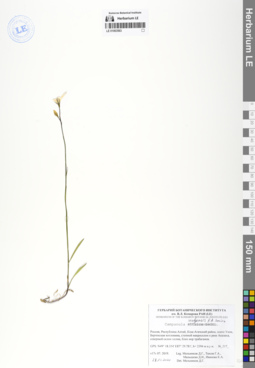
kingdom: Plantae
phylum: Tracheophyta
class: Magnoliopsida
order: Asterales
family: Campanulaceae
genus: Campanula
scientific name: Campanula stevenii
